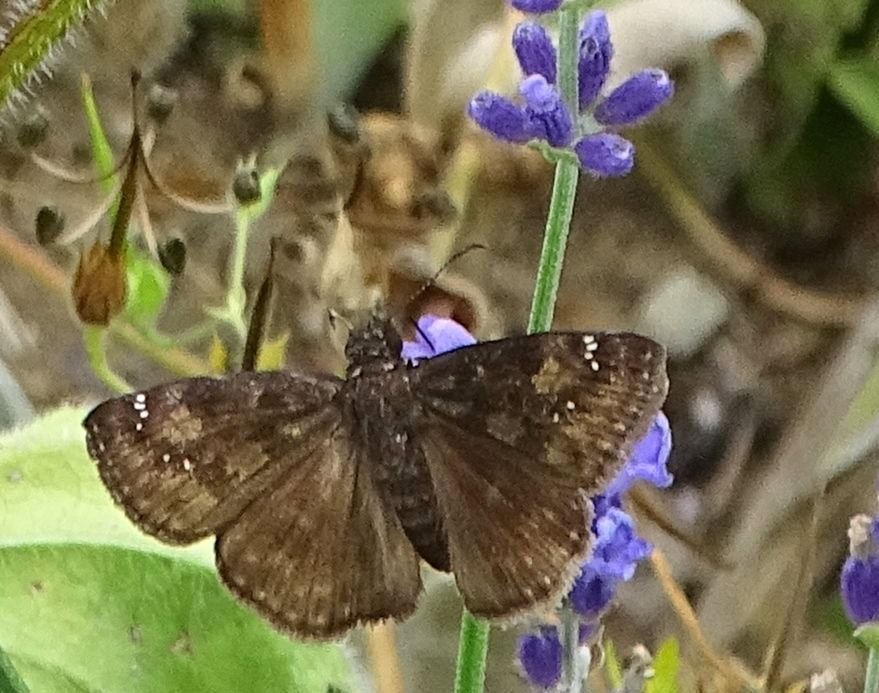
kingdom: Animalia
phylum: Arthropoda
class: Insecta
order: Lepidoptera
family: Hesperiidae
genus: Gesta
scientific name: Gesta
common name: Wild Indigo Duskywing
